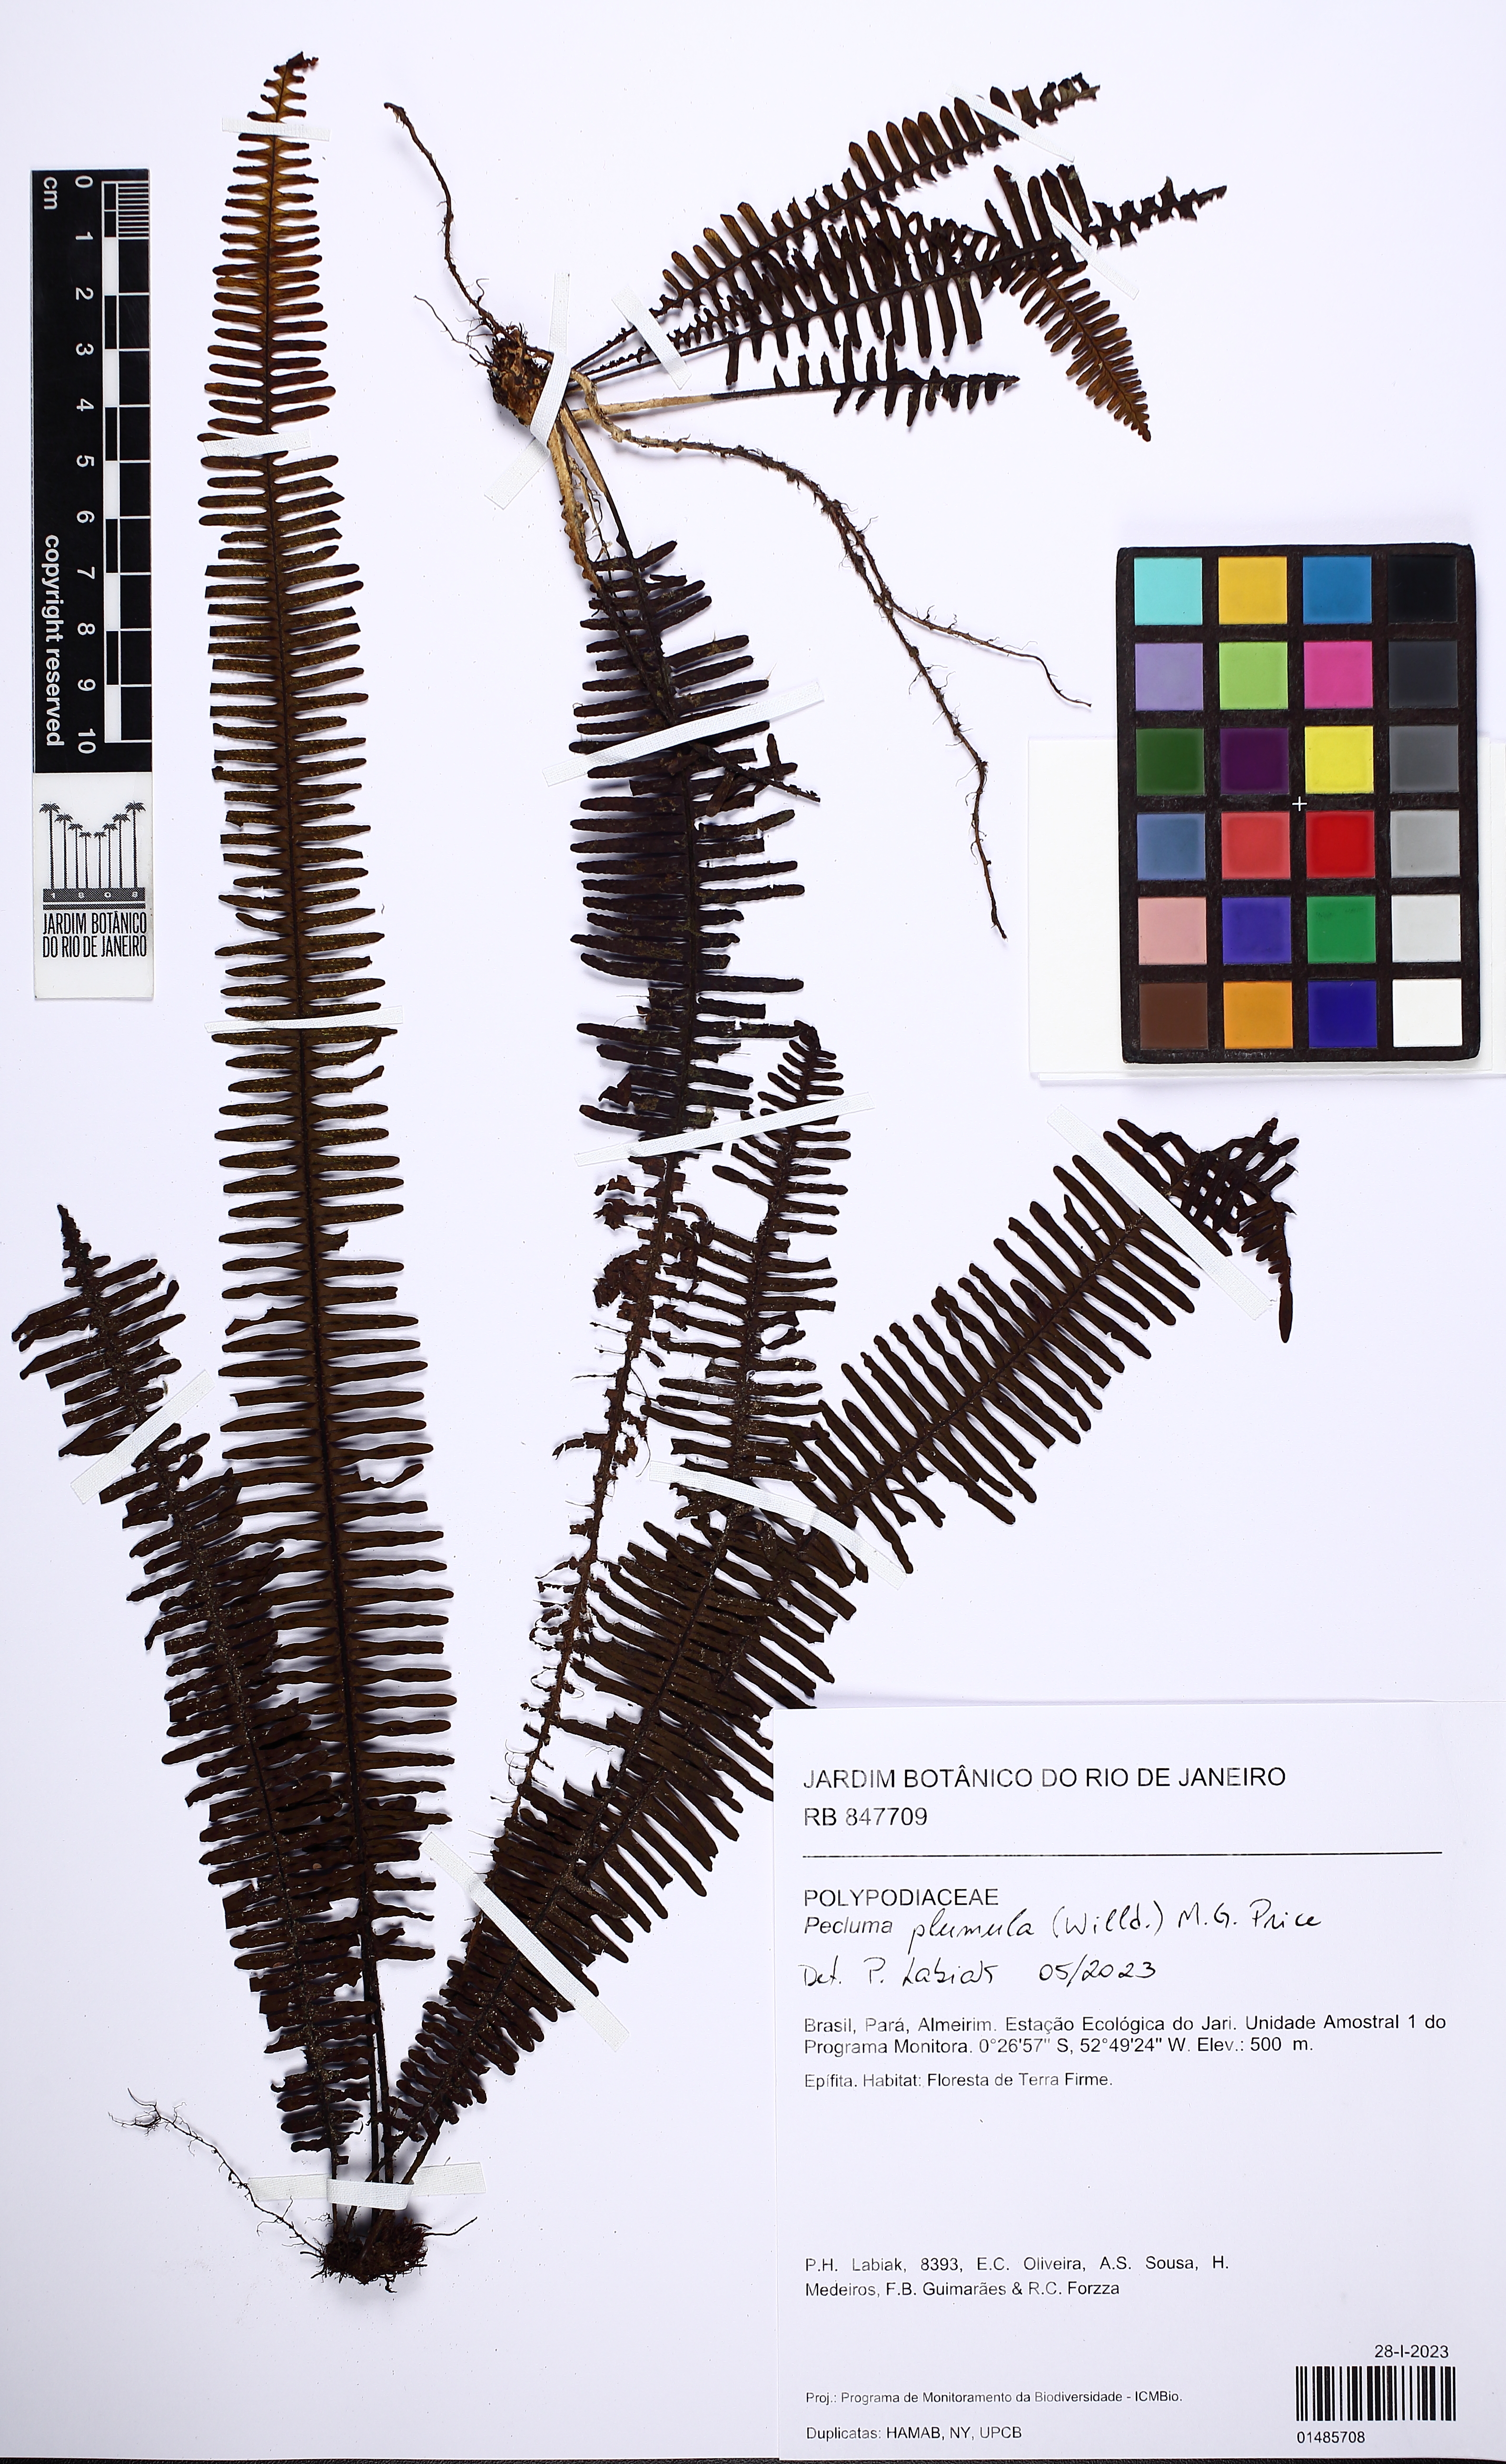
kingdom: Plantae
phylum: Tracheophyta
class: Polypodiopsida
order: Polypodiales
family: Polypodiaceae
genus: Pecluma
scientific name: Pecluma plumula
